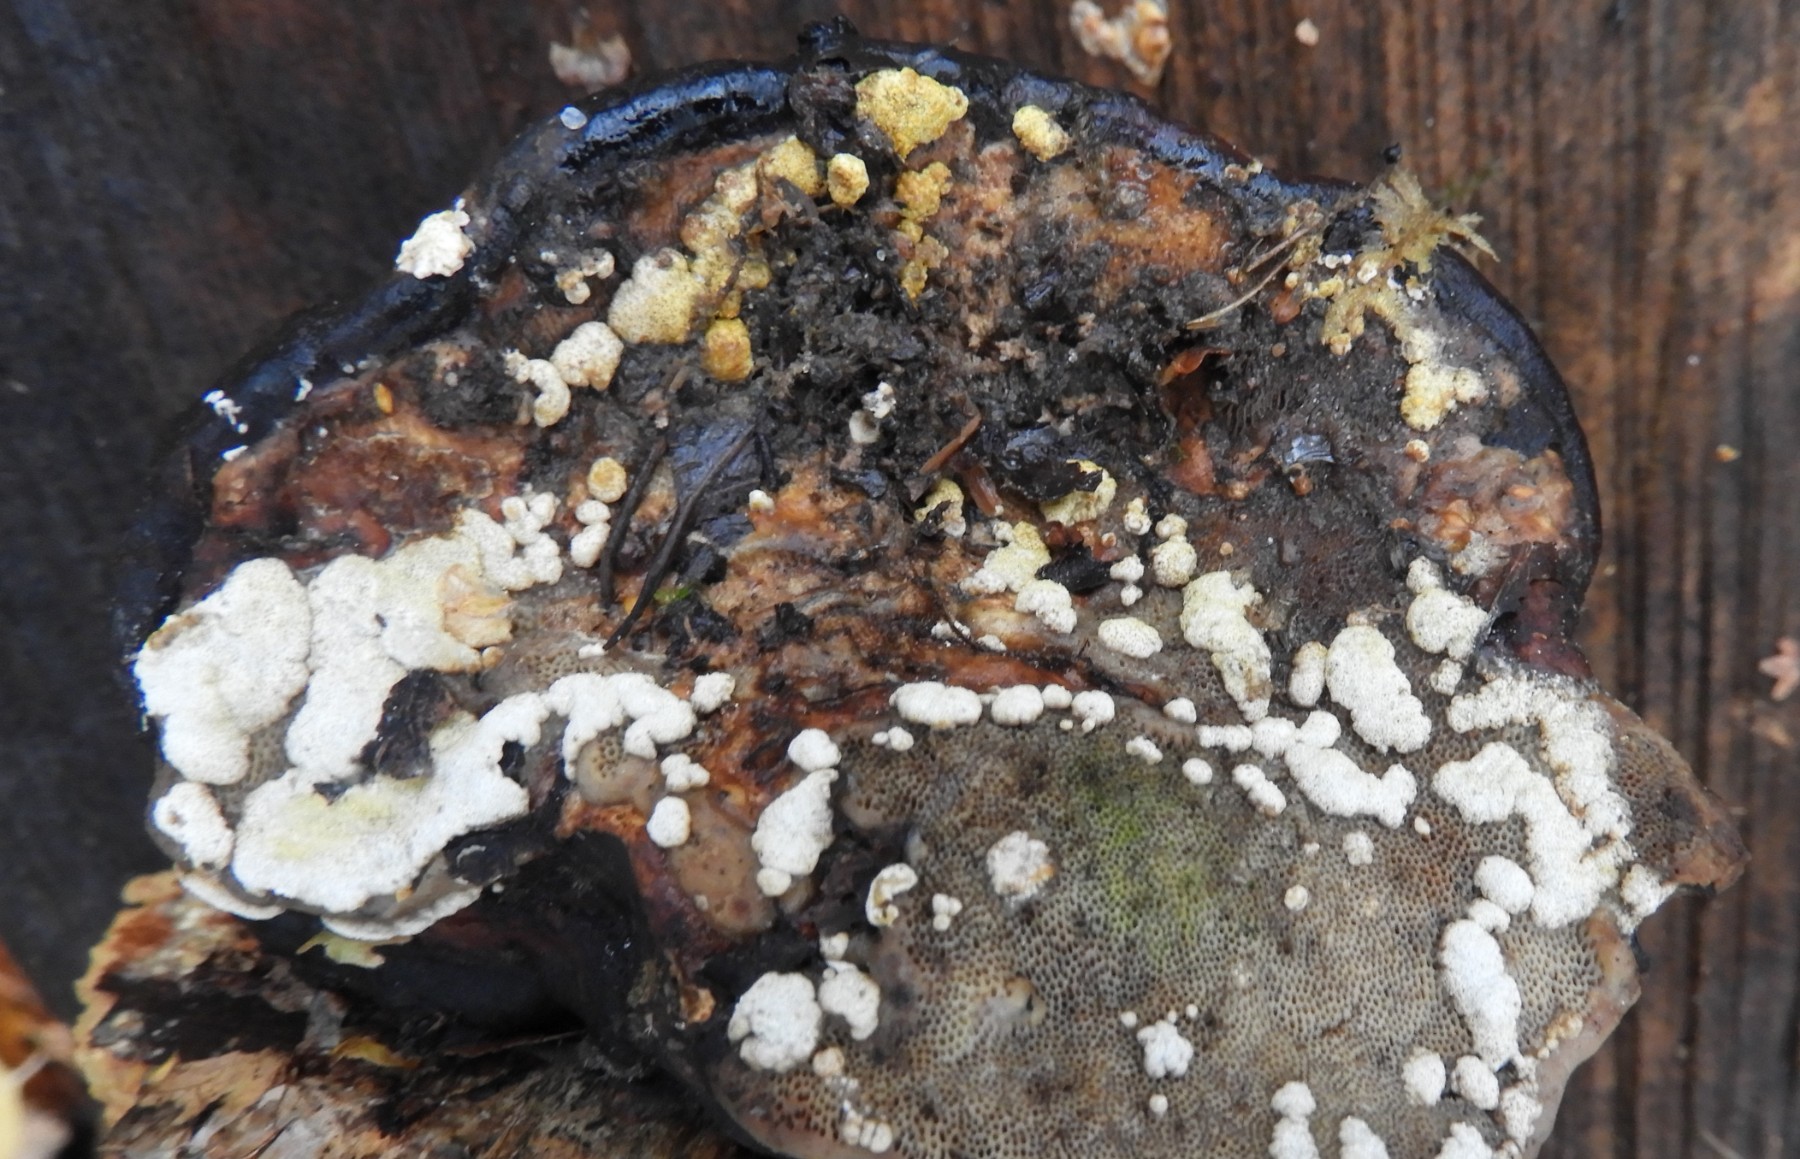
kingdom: Fungi
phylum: Ascomycota
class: Sordariomycetes
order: Hypocreales
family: Hypocreaceae
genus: Trichoderma
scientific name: Trichoderma pulvinatum
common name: snyltende kødkerne
